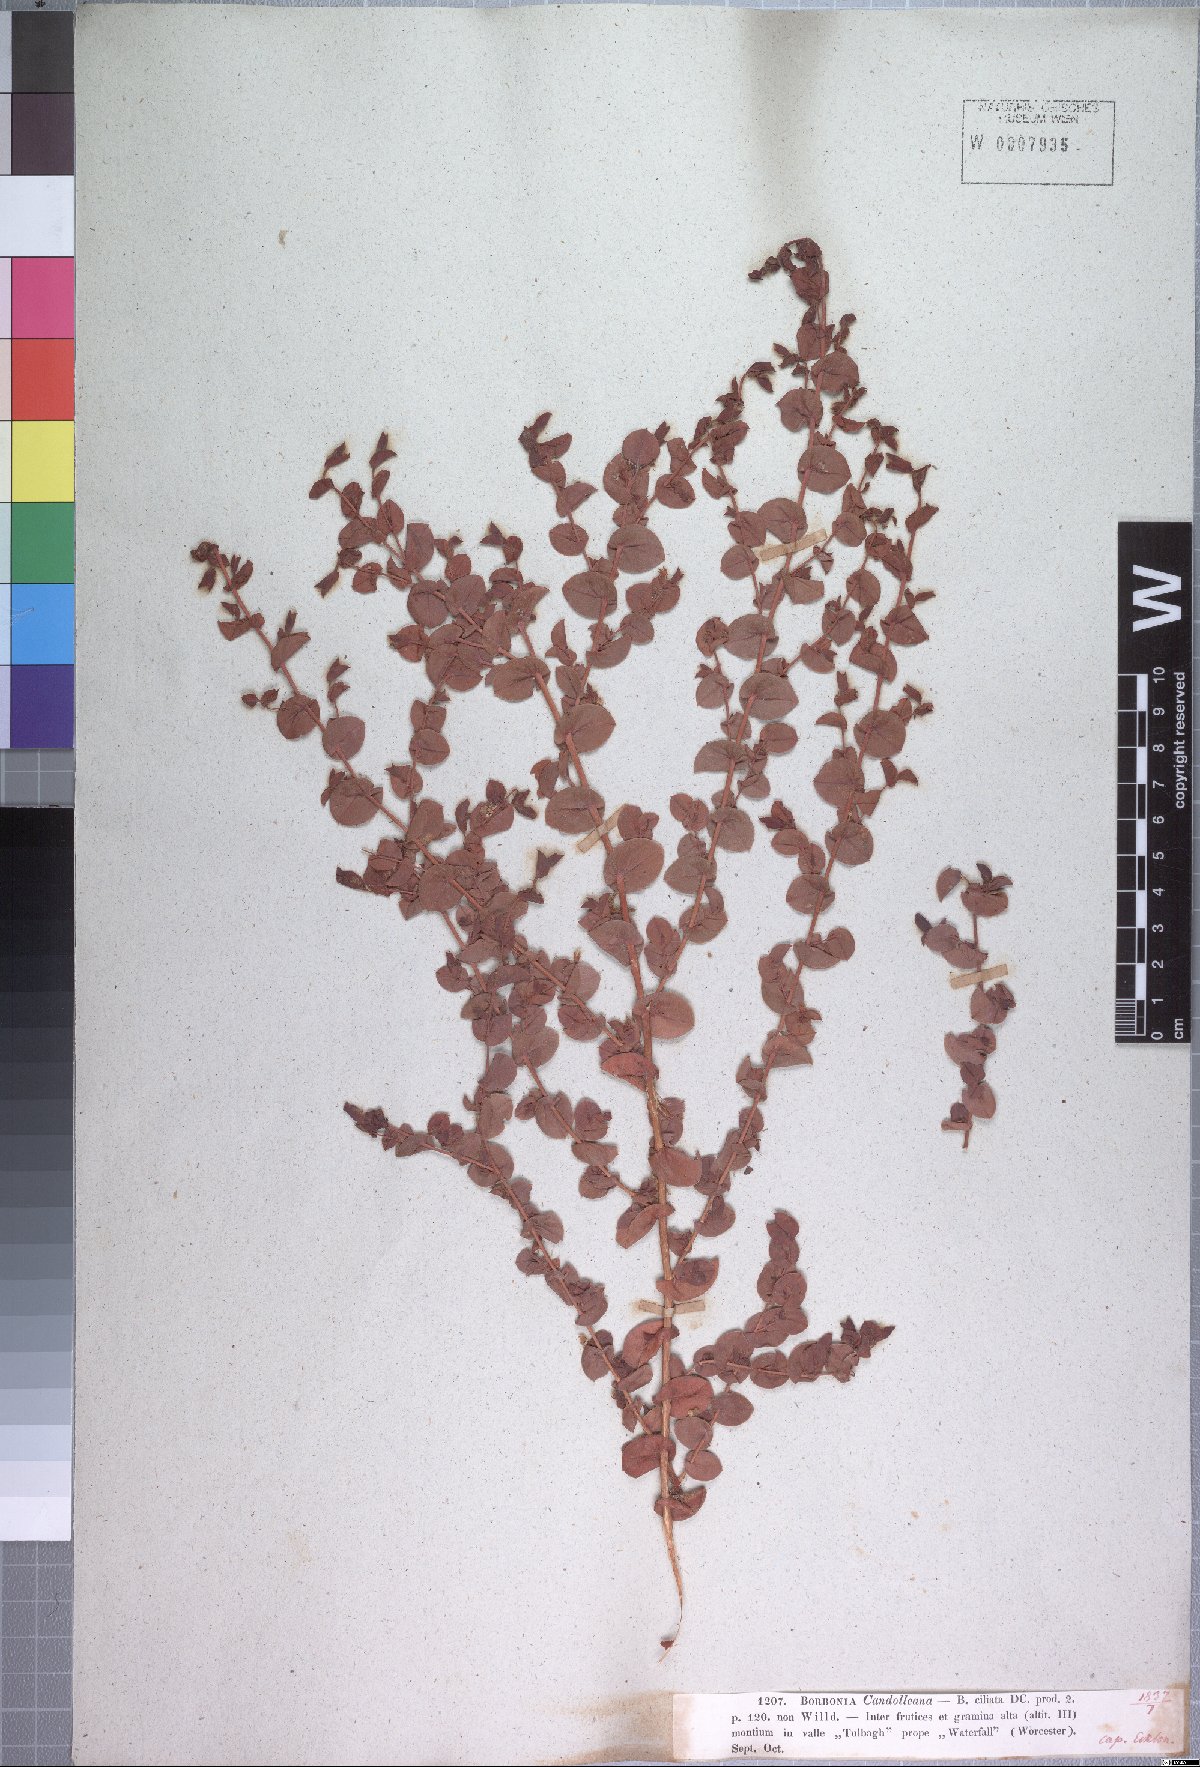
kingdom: Plantae
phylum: Tracheophyta
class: Magnoliopsida
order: Fabales
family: Fabaceae
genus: Aspalathus
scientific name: Aspalathus perforata
